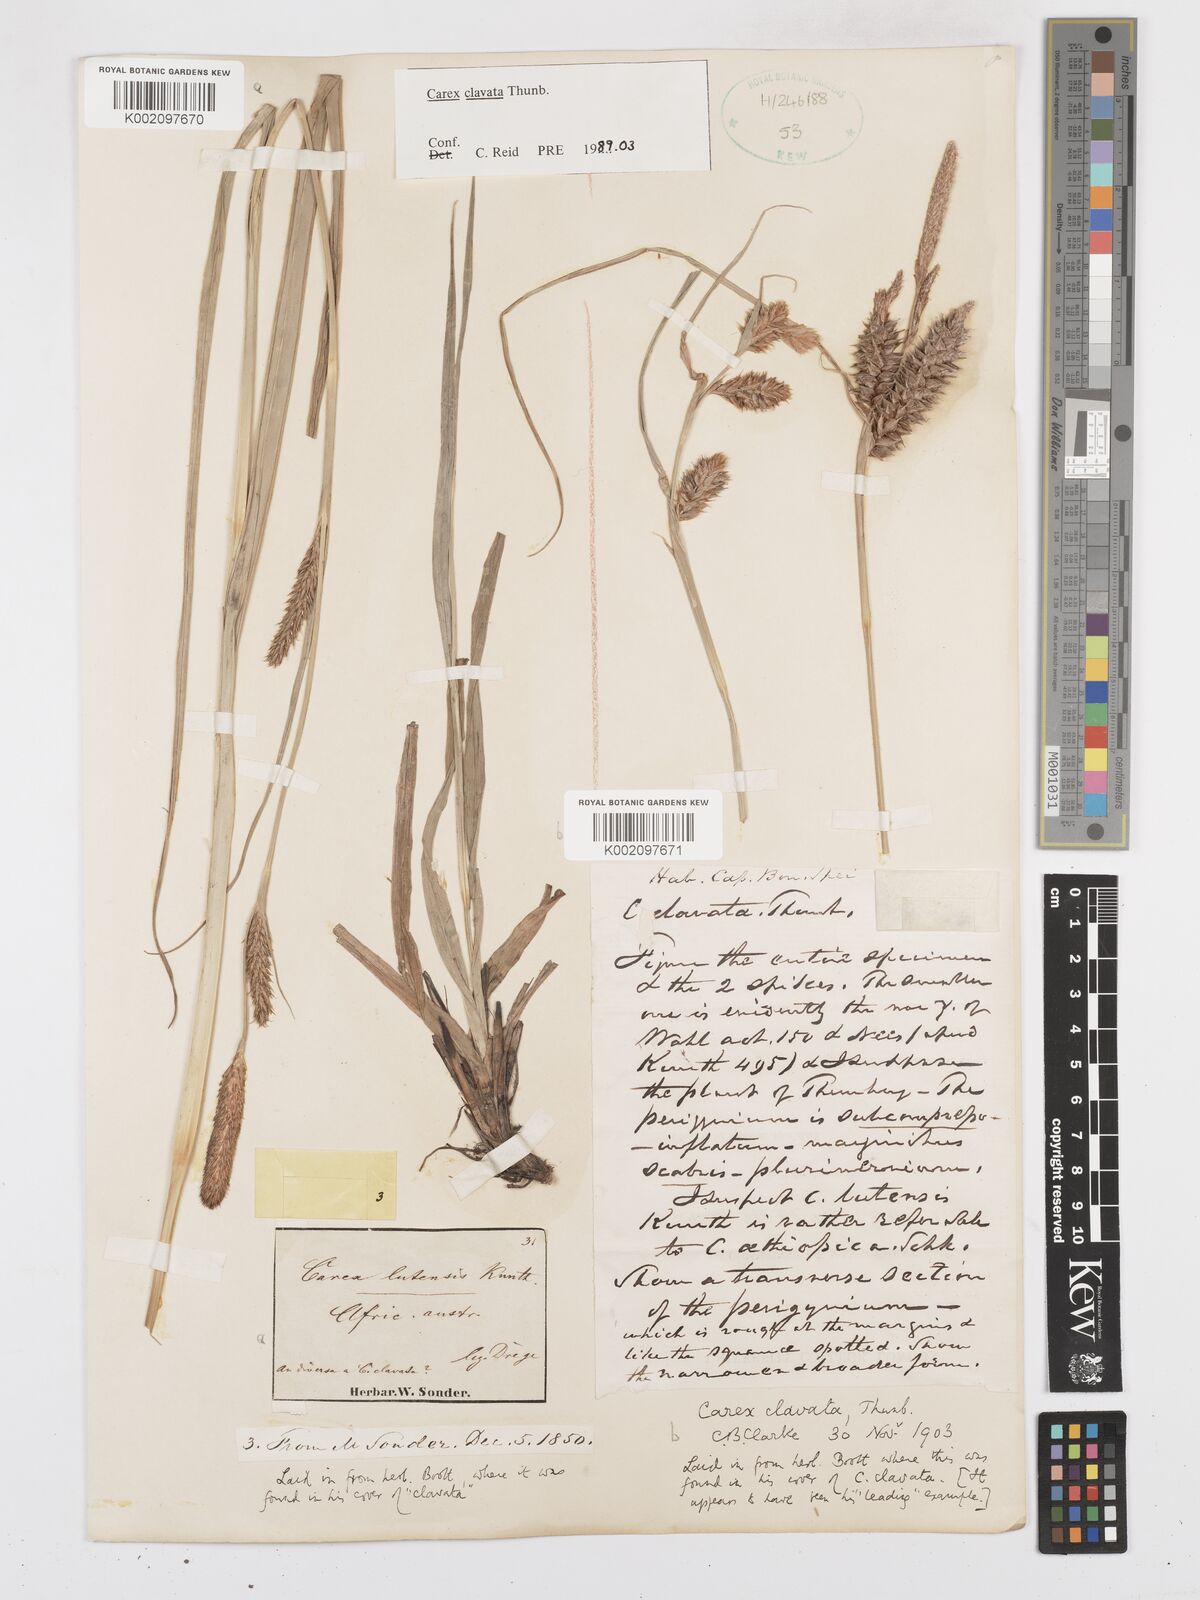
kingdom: Plantae
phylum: Tracheophyta
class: Liliopsida
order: Poales
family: Cyperaceae
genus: Carex
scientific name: Carex clavata
